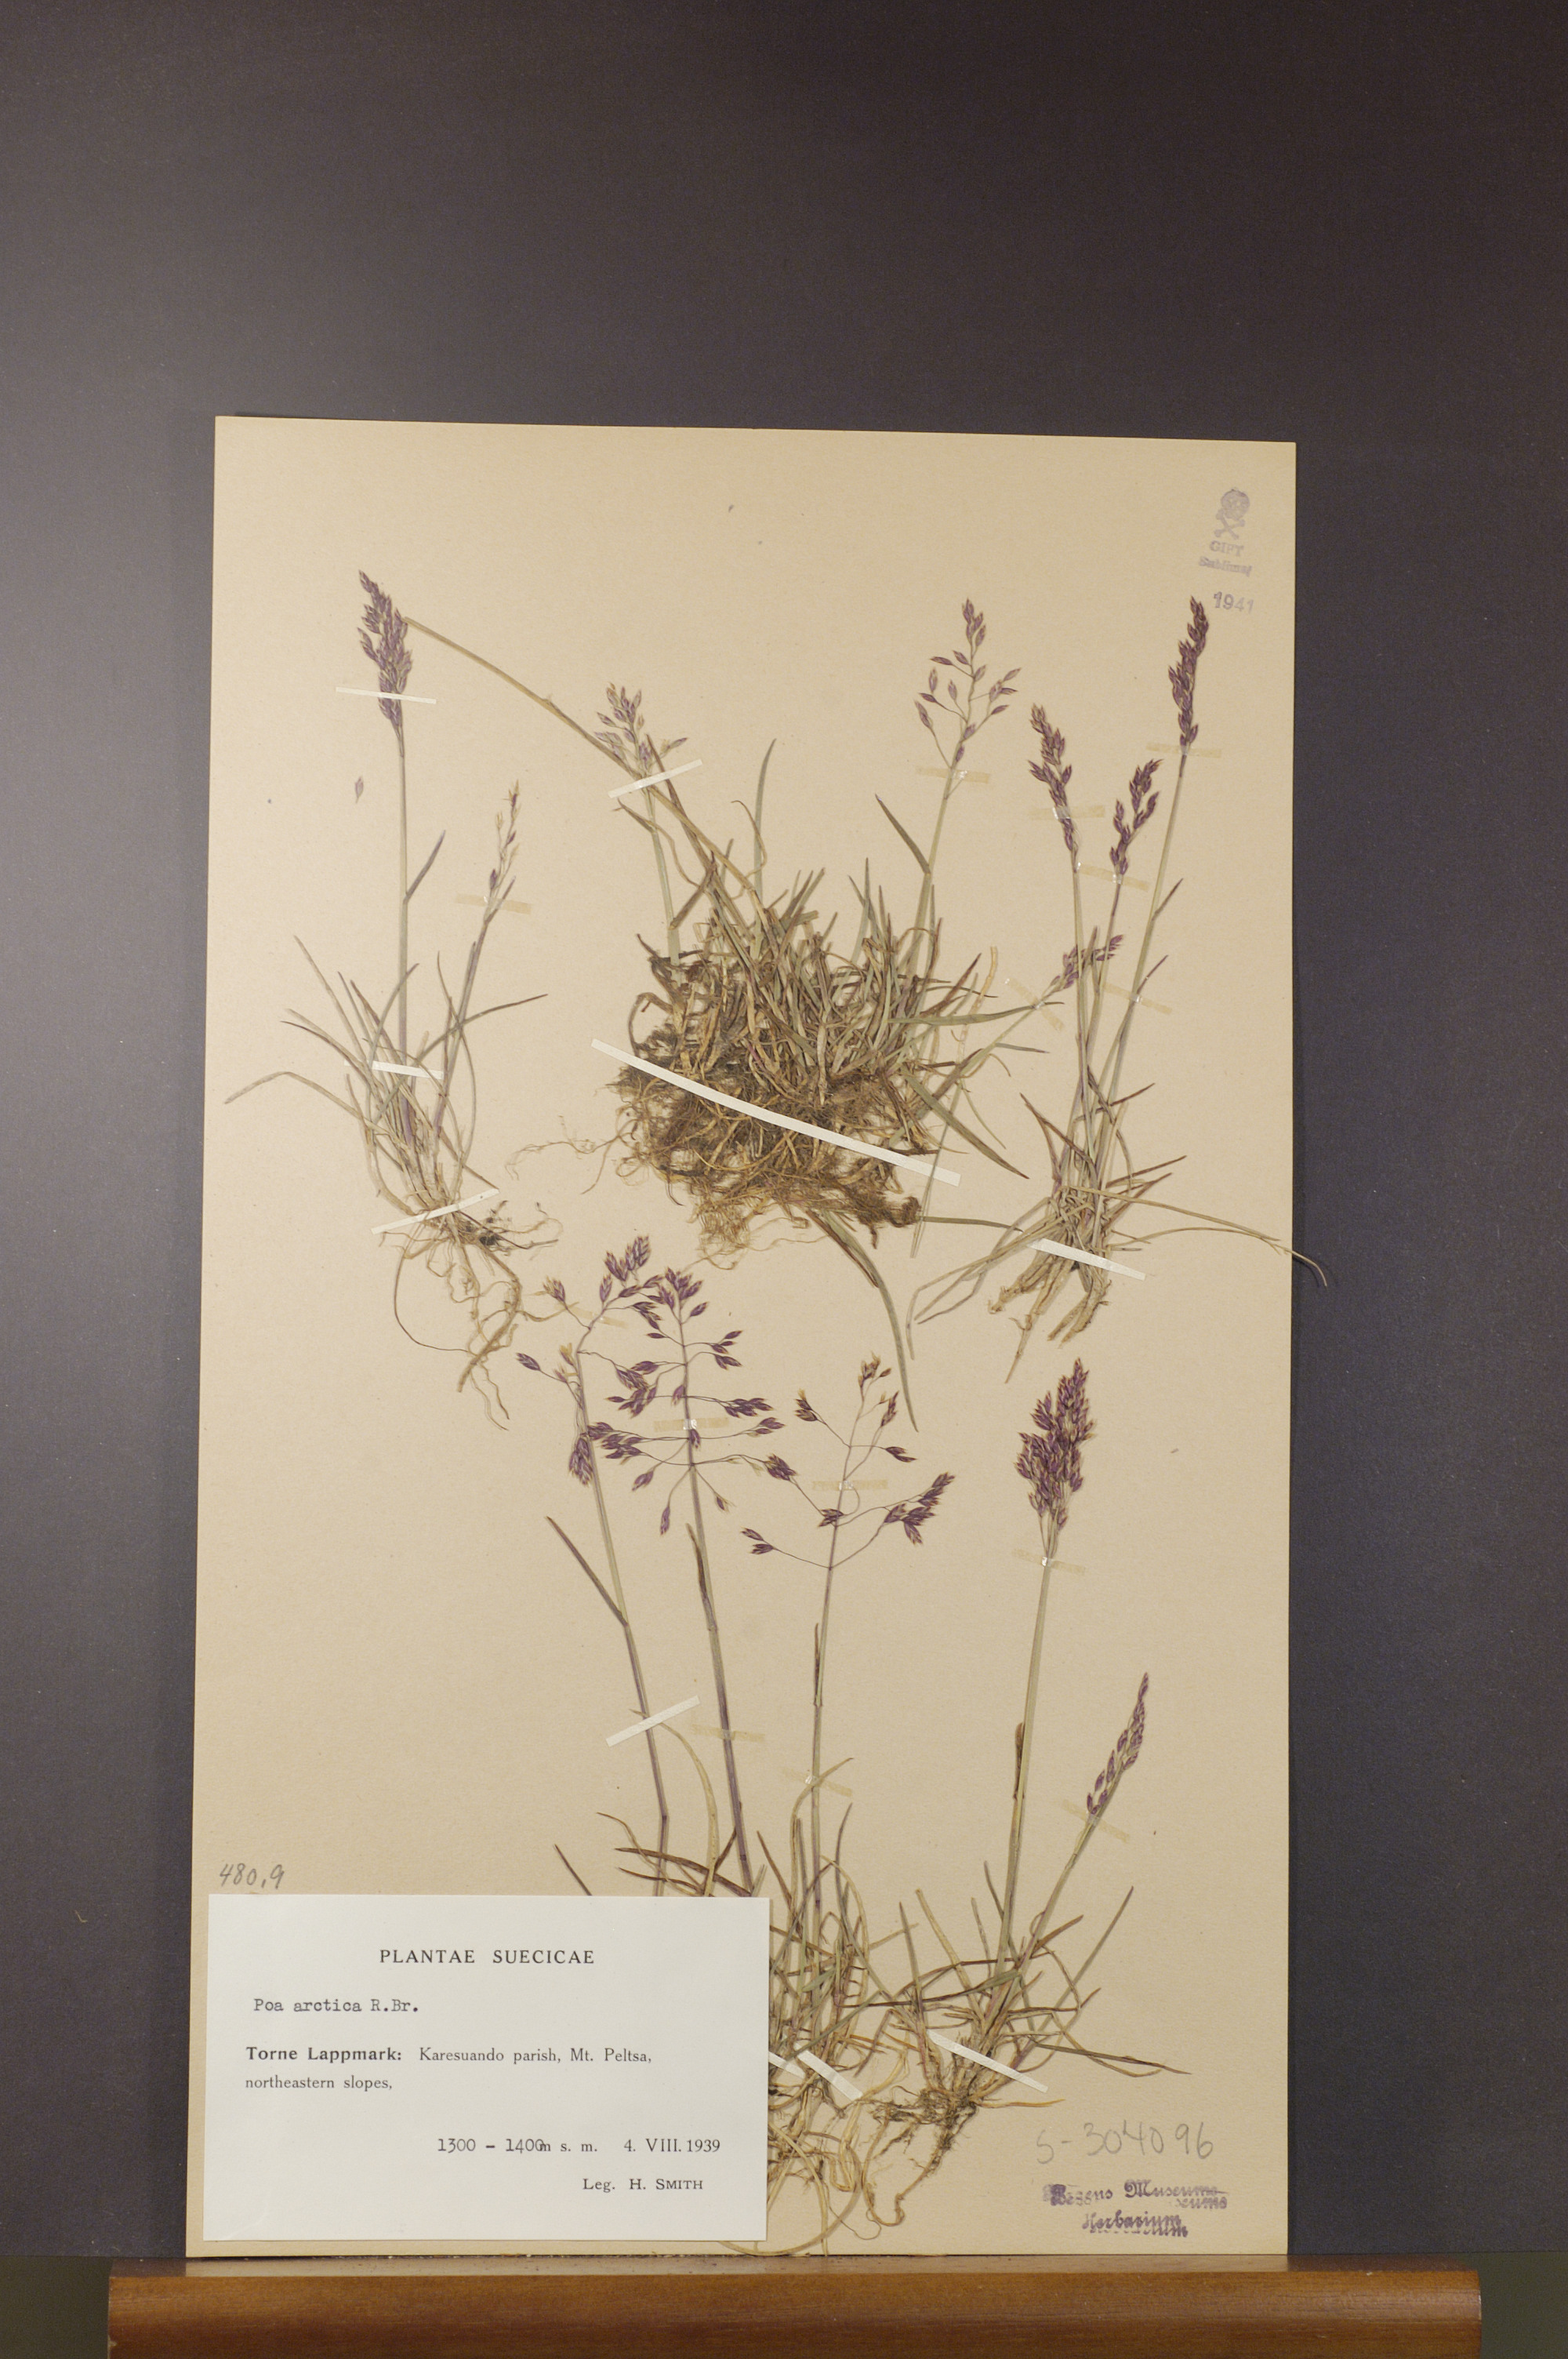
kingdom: Plantae
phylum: Tracheophyta
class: Liliopsida
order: Poales
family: Poaceae
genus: Poa
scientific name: Poa arctica
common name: Arctic bluegrass
